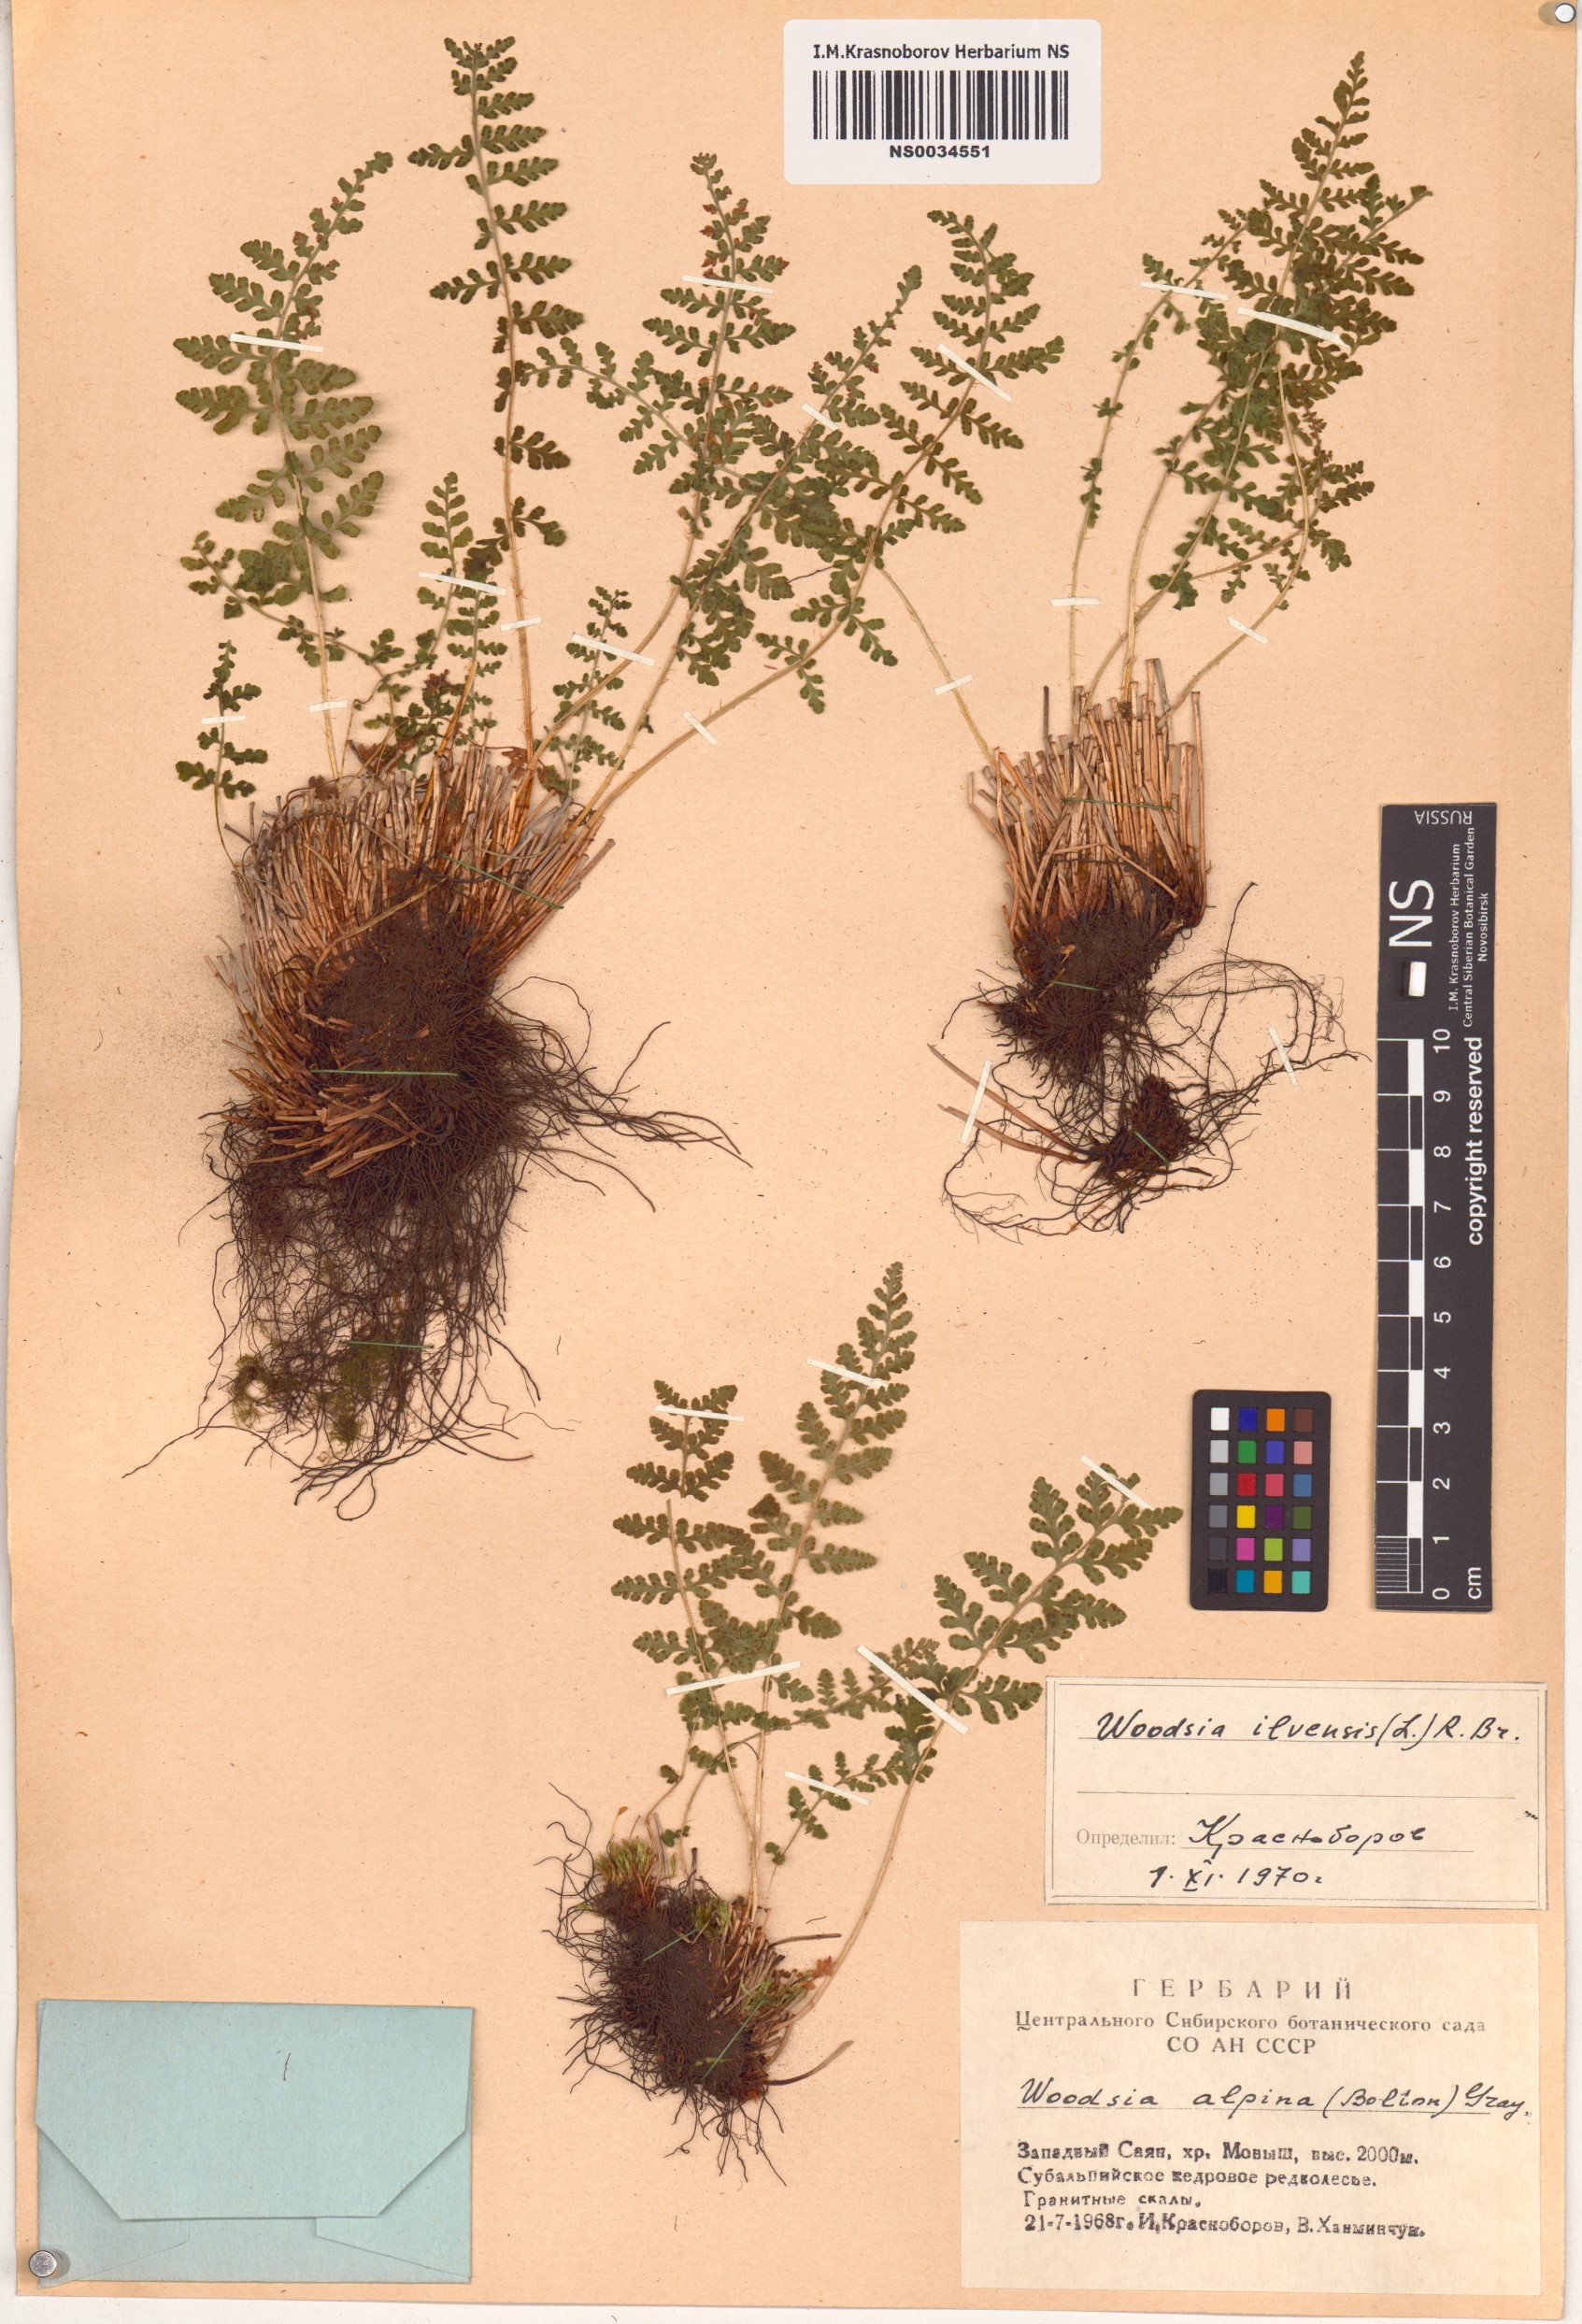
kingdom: Plantae
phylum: Tracheophyta
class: Polypodiopsida
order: Polypodiales
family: Woodsiaceae
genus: Woodsia
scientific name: Woodsia ilvensis
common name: Fragrant woodsia
